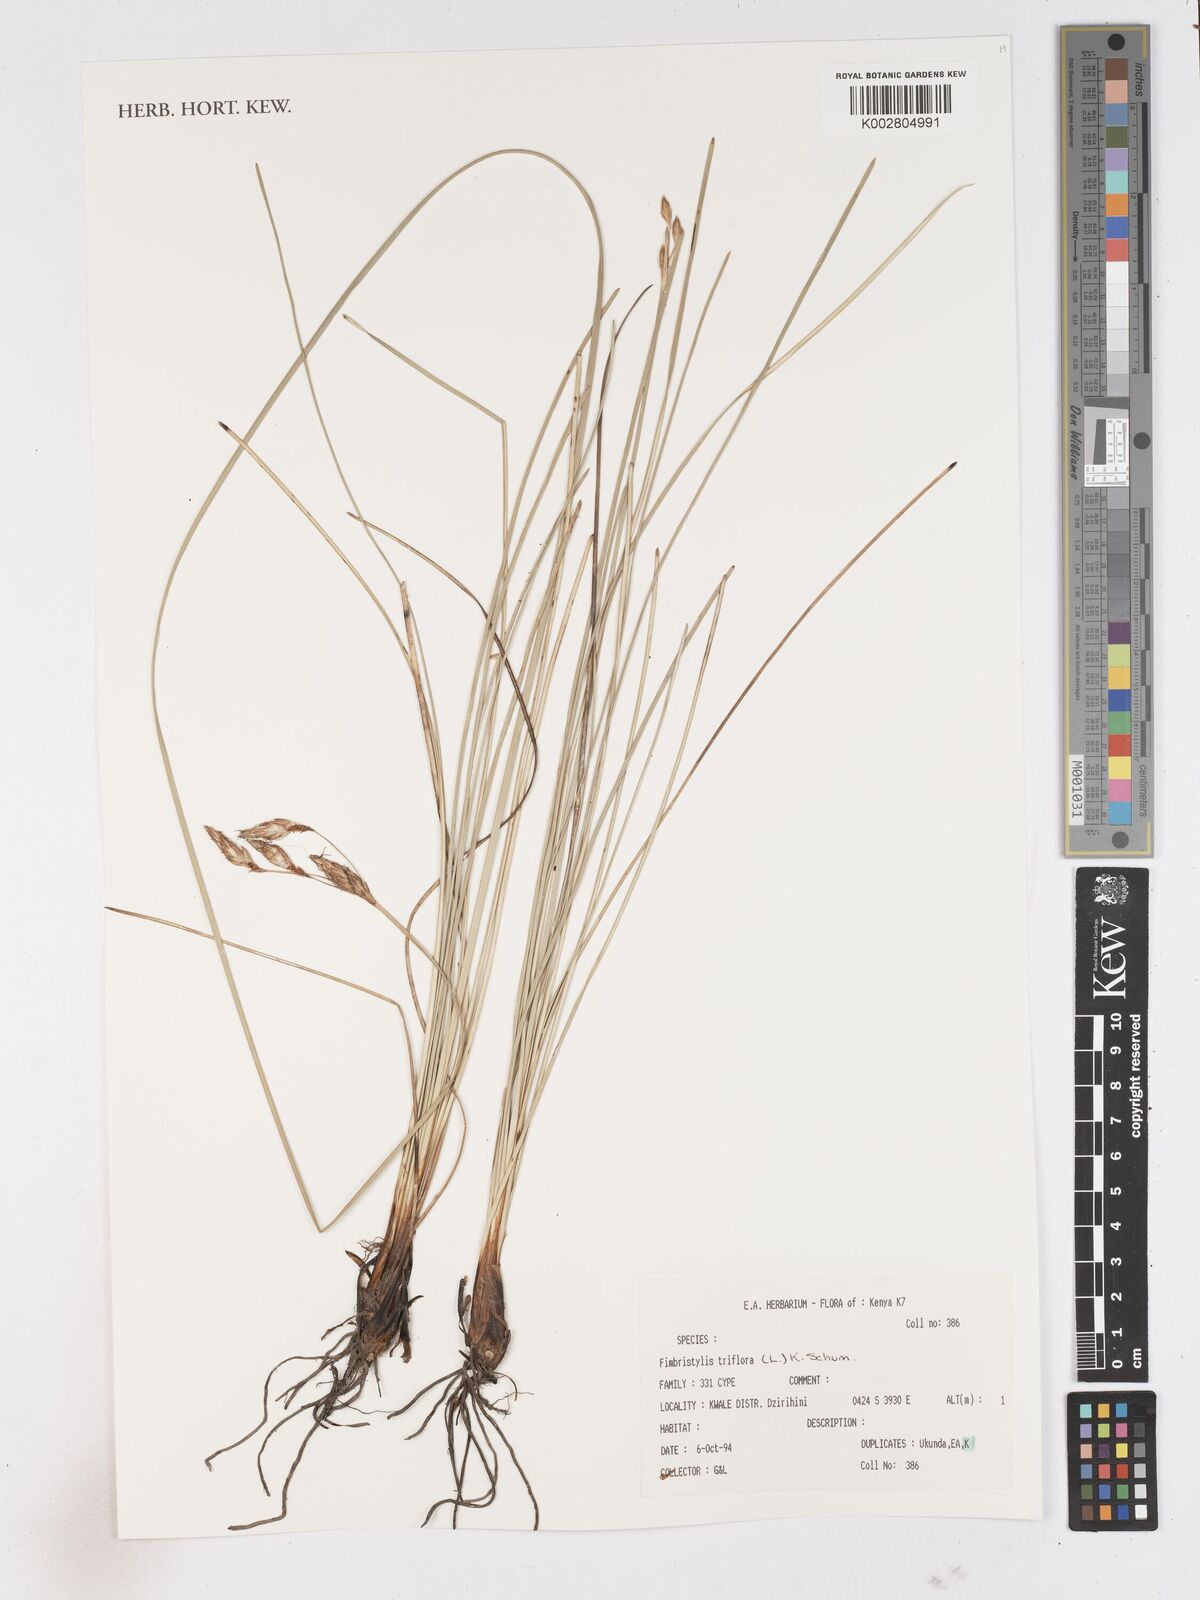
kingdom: Plantae
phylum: Tracheophyta
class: Liliopsida
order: Poales
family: Cyperaceae
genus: Abildgaardia
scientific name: Abildgaardia triflora
